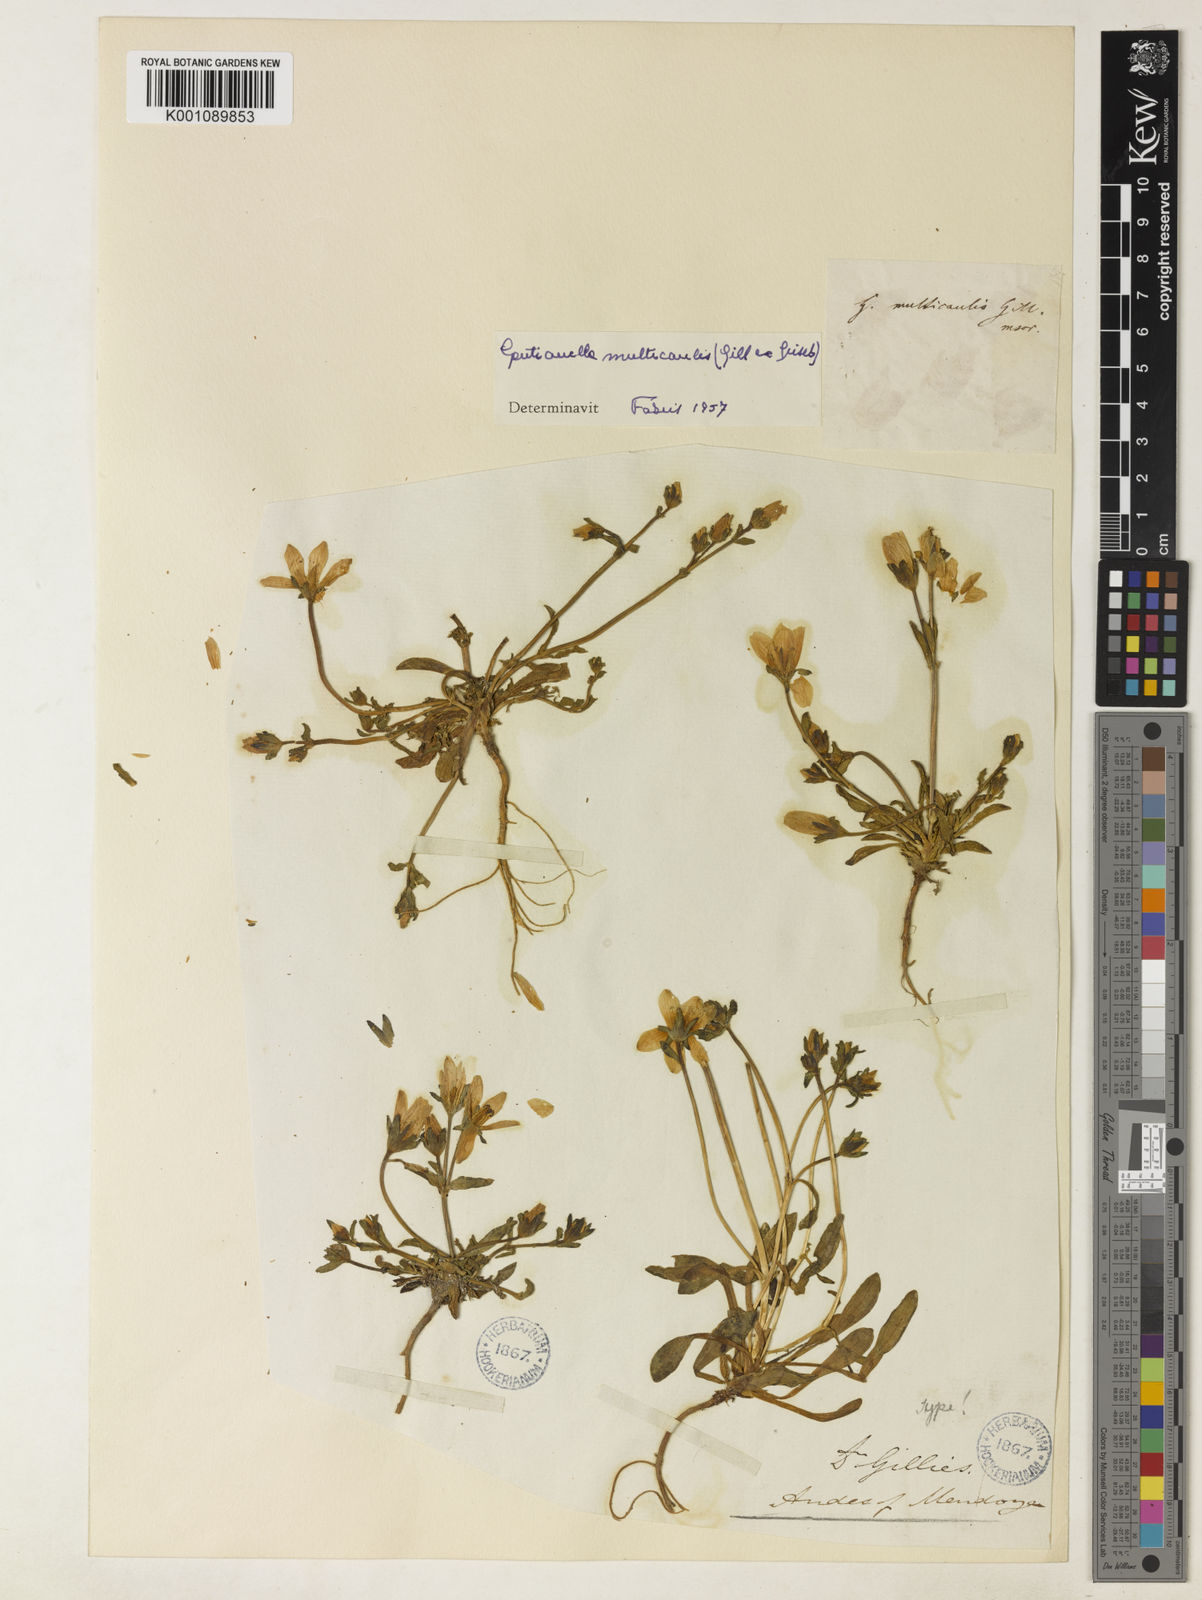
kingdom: Plantae
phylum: Tracheophyta
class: Magnoliopsida
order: Gentianales
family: Gentianaceae
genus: Gentianella
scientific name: Gentianella multicaulis
